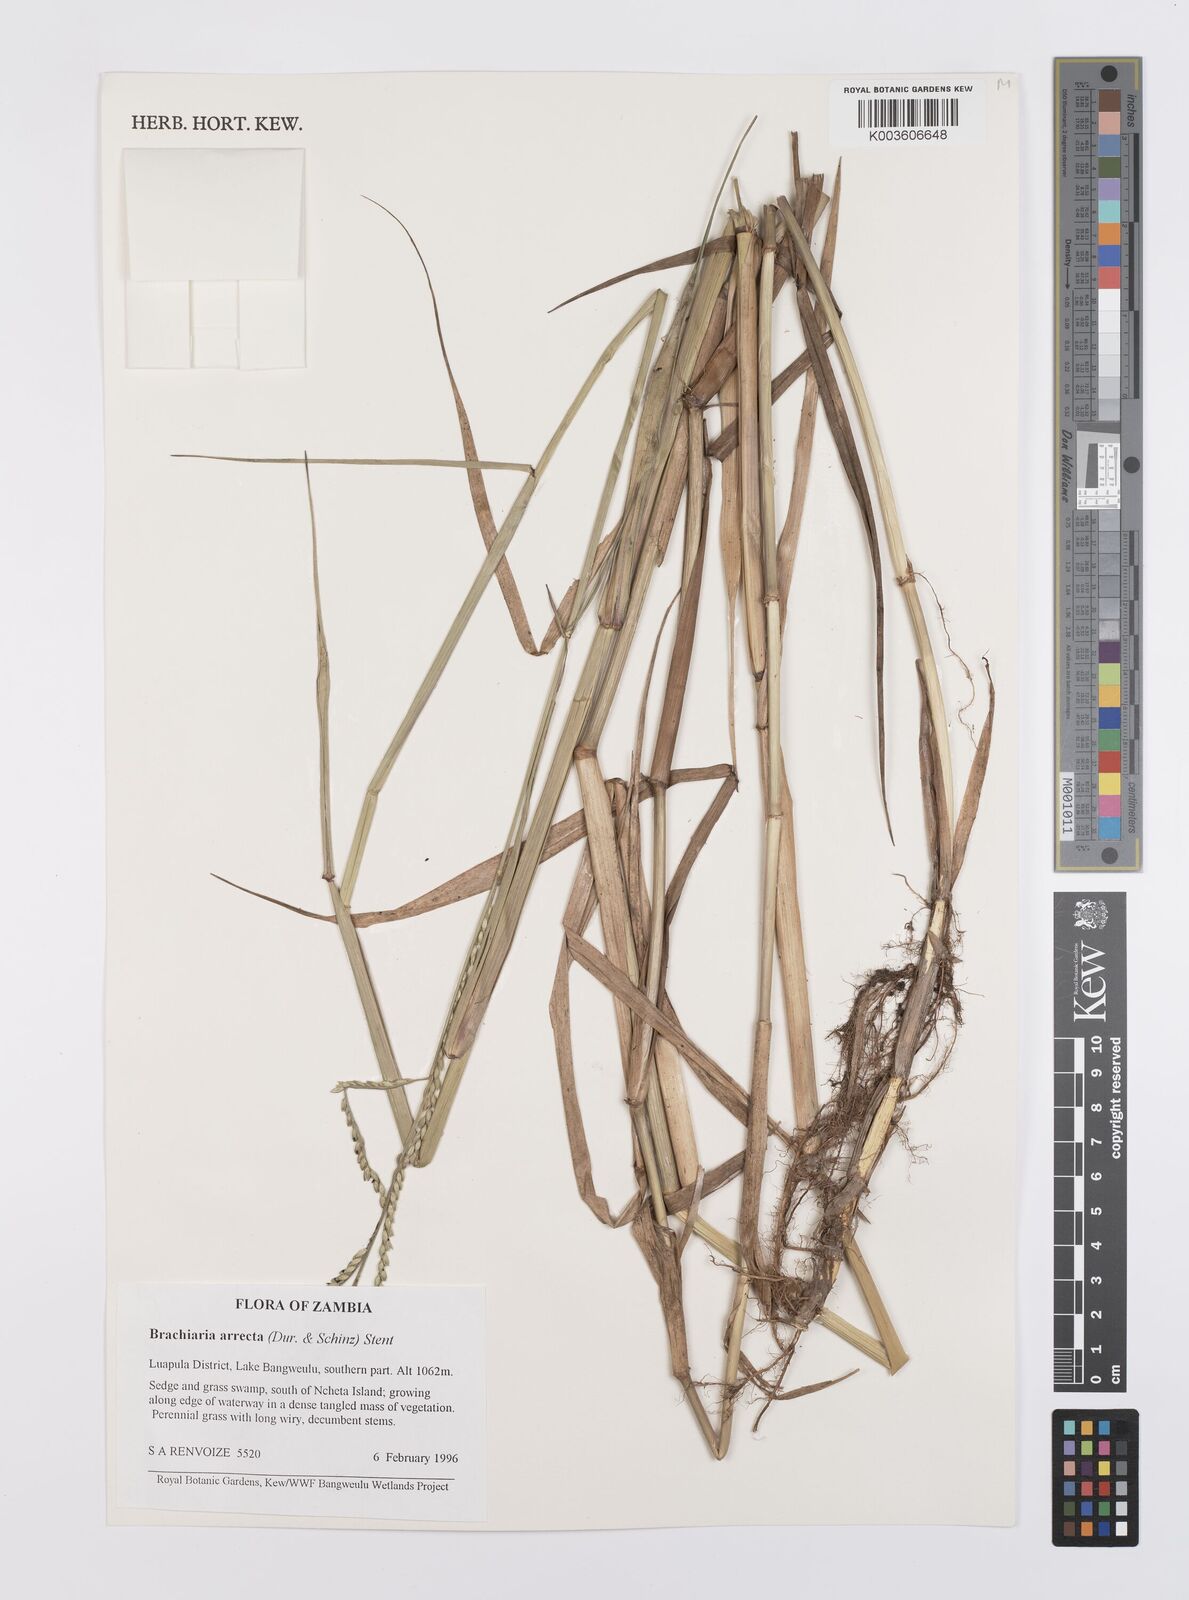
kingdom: Plantae
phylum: Tracheophyta
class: Liliopsida
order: Poales
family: Poaceae
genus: Urochloa
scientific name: Urochloa arrecta
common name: African signalgrass
